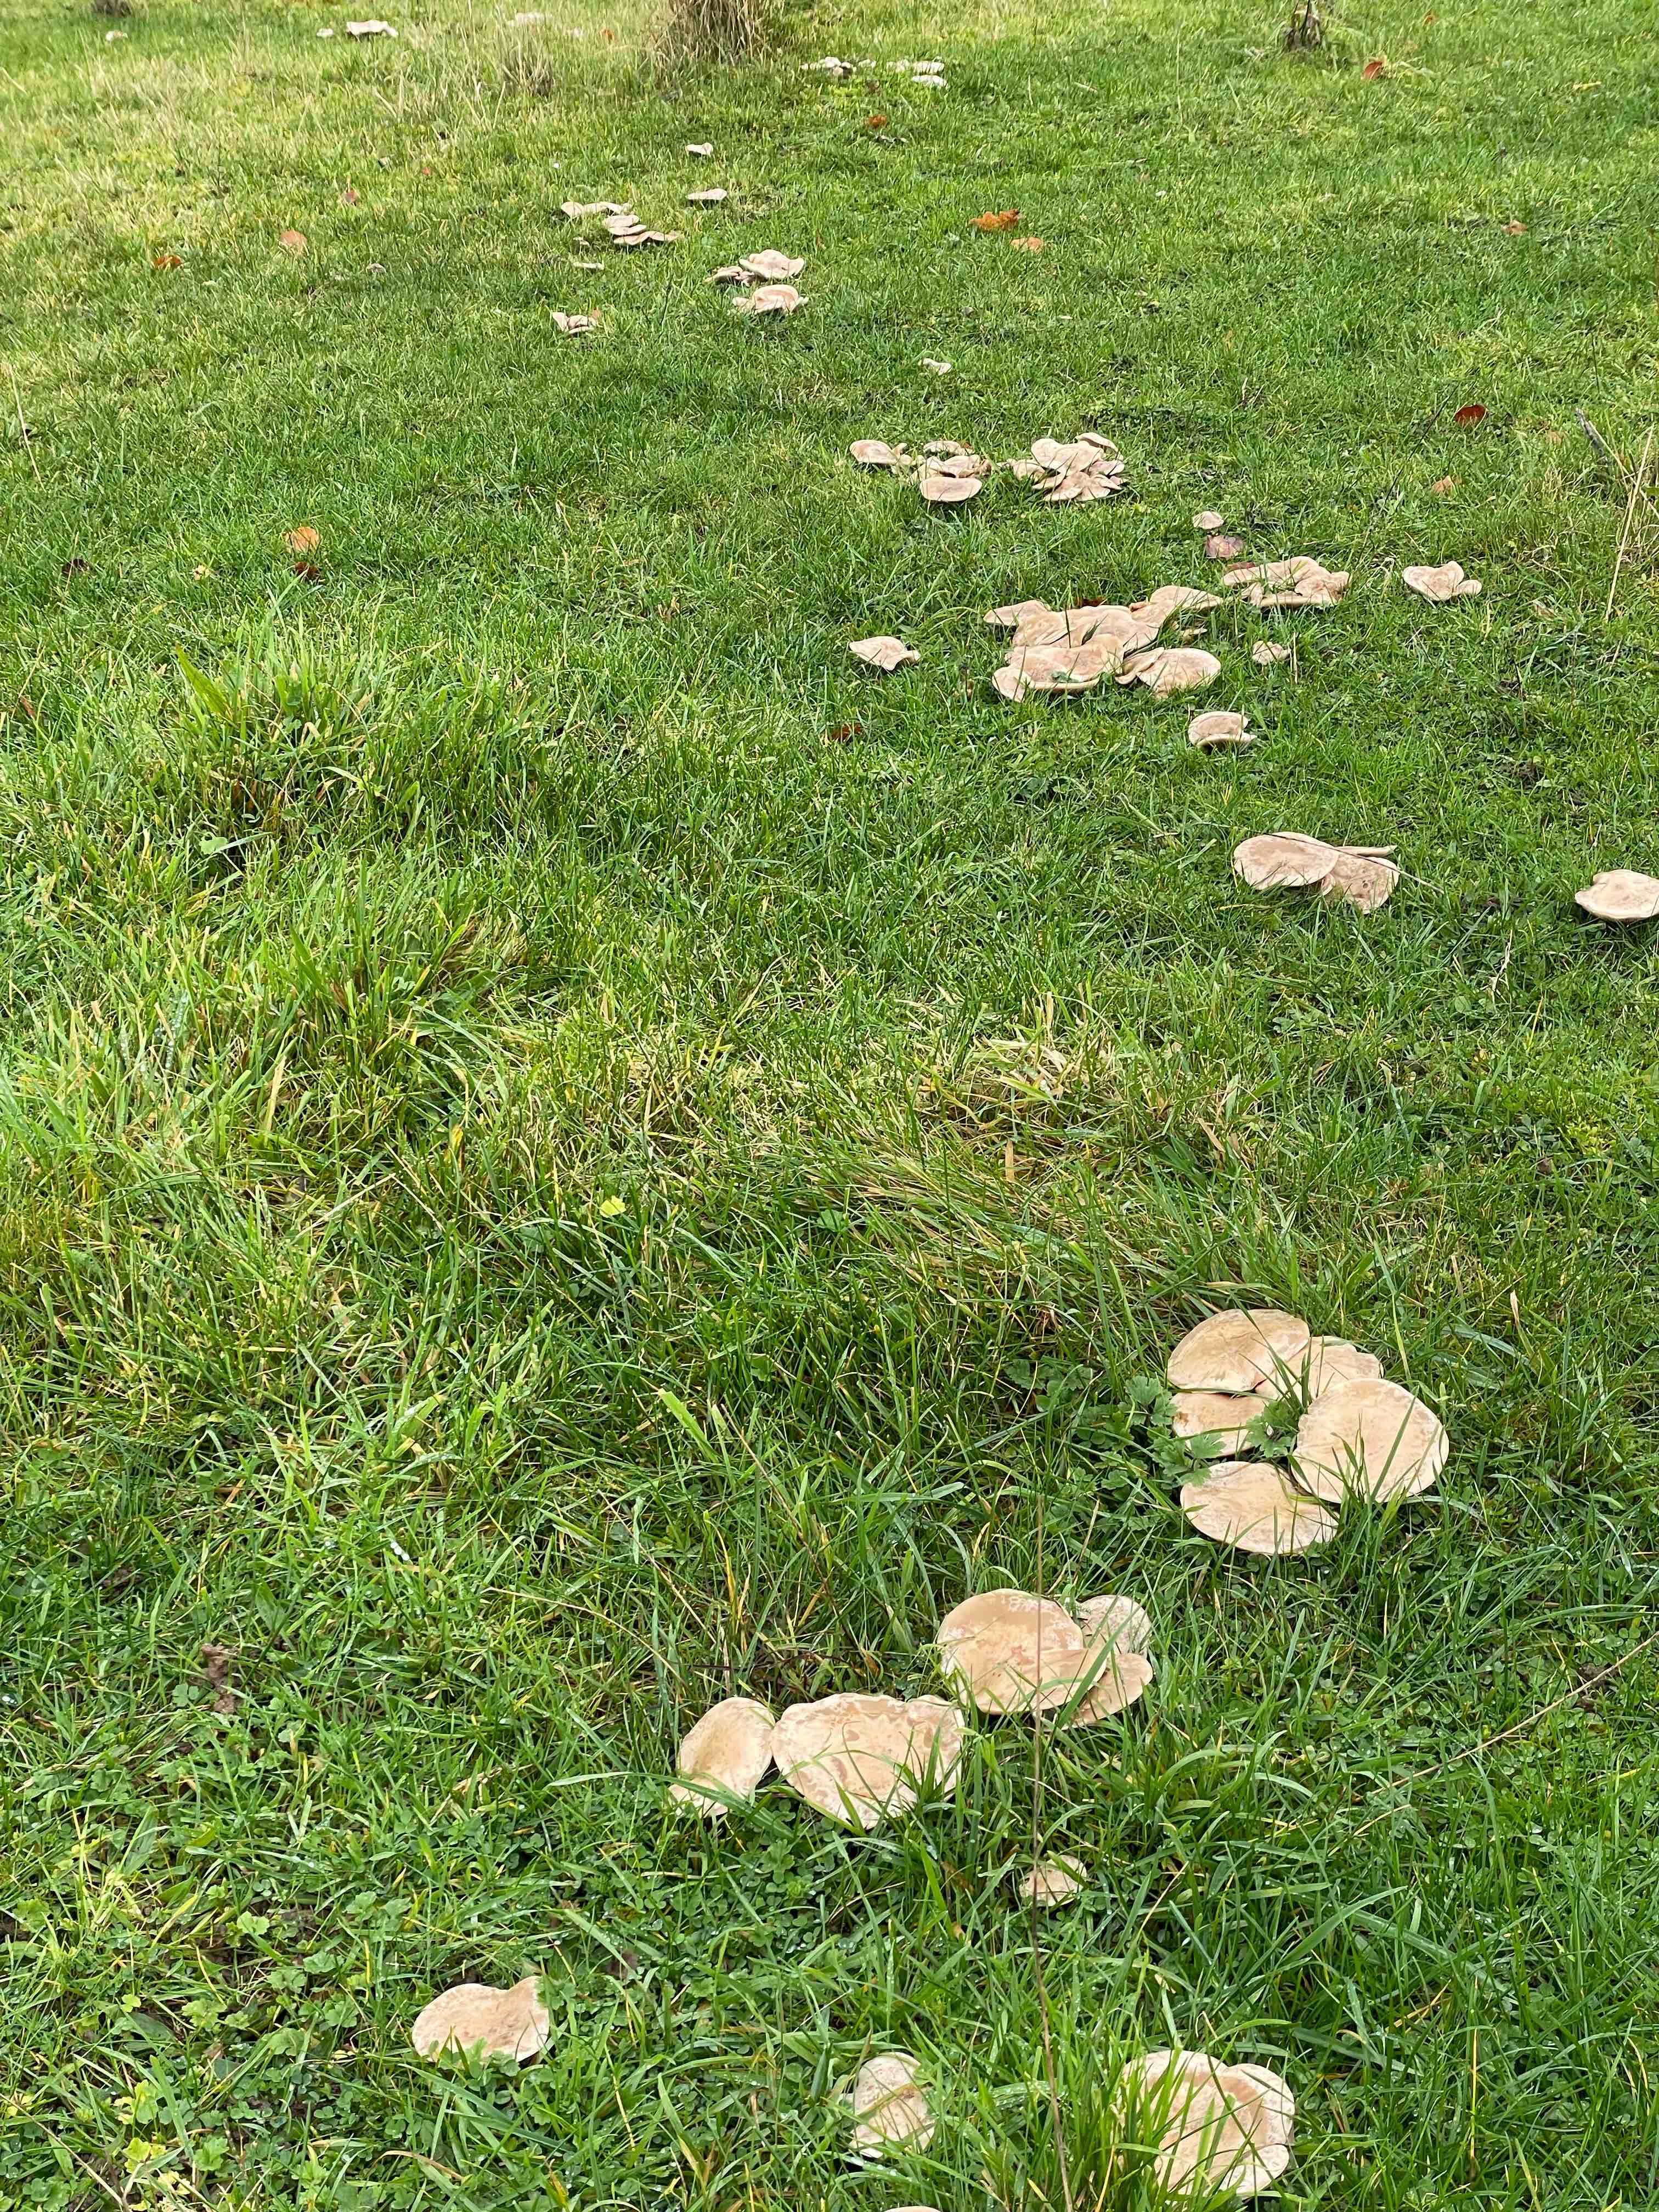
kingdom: Fungi
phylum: Basidiomycota
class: Agaricomycetes
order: Agaricales
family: Tricholomataceae
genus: Lepista
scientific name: Lepista panaeolus
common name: marmoreret hekseringshat
